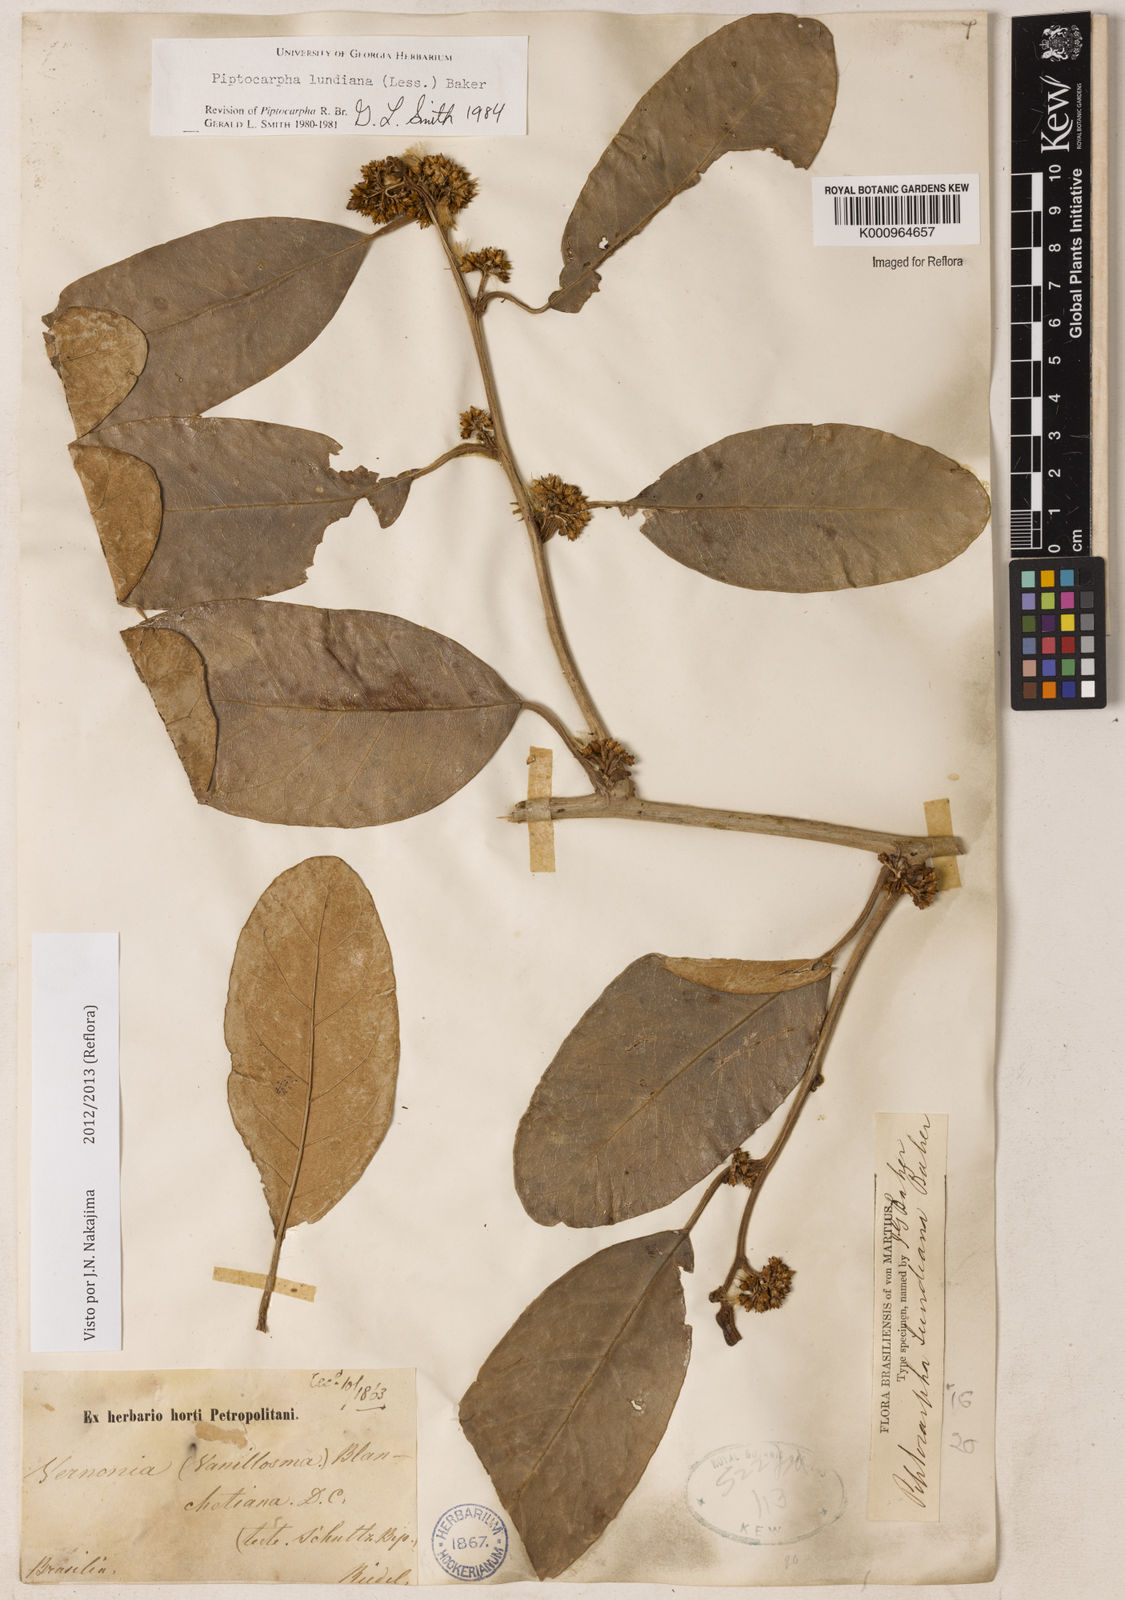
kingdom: Plantae
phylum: Tracheophyta
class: Magnoliopsida
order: Asterales
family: Asteraceae
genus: Piptocarpha
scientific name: Piptocarpha lundiana
